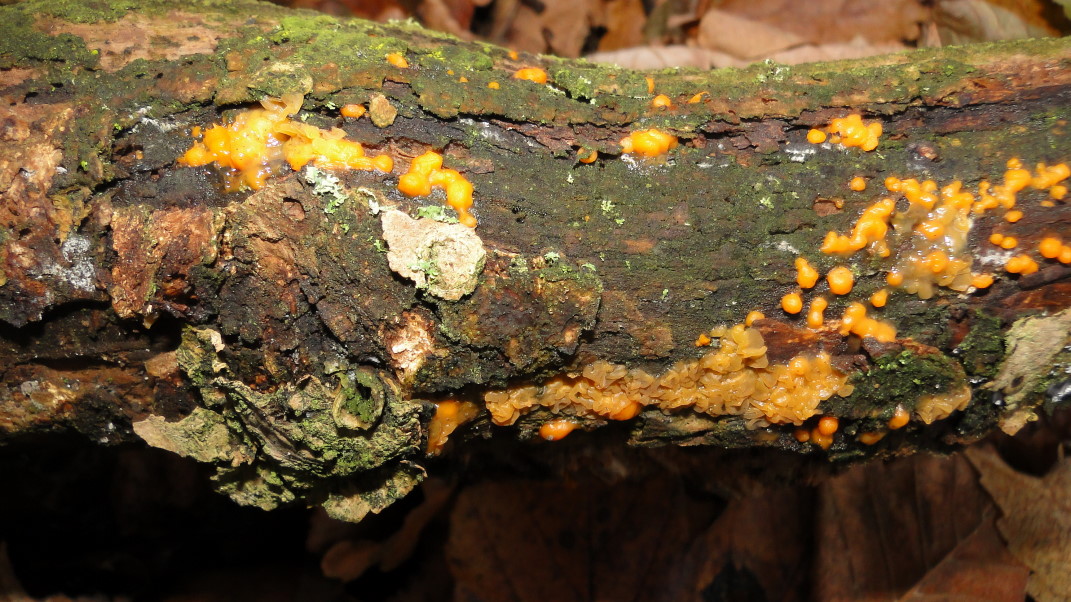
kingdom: Fungi
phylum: Basidiomycota
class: Dacrymycetes
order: Dacrymycetales
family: Dacrymycetaceae
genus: Dacrymyces
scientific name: Dacrymyces stillatus
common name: almindelig tåresvamp
